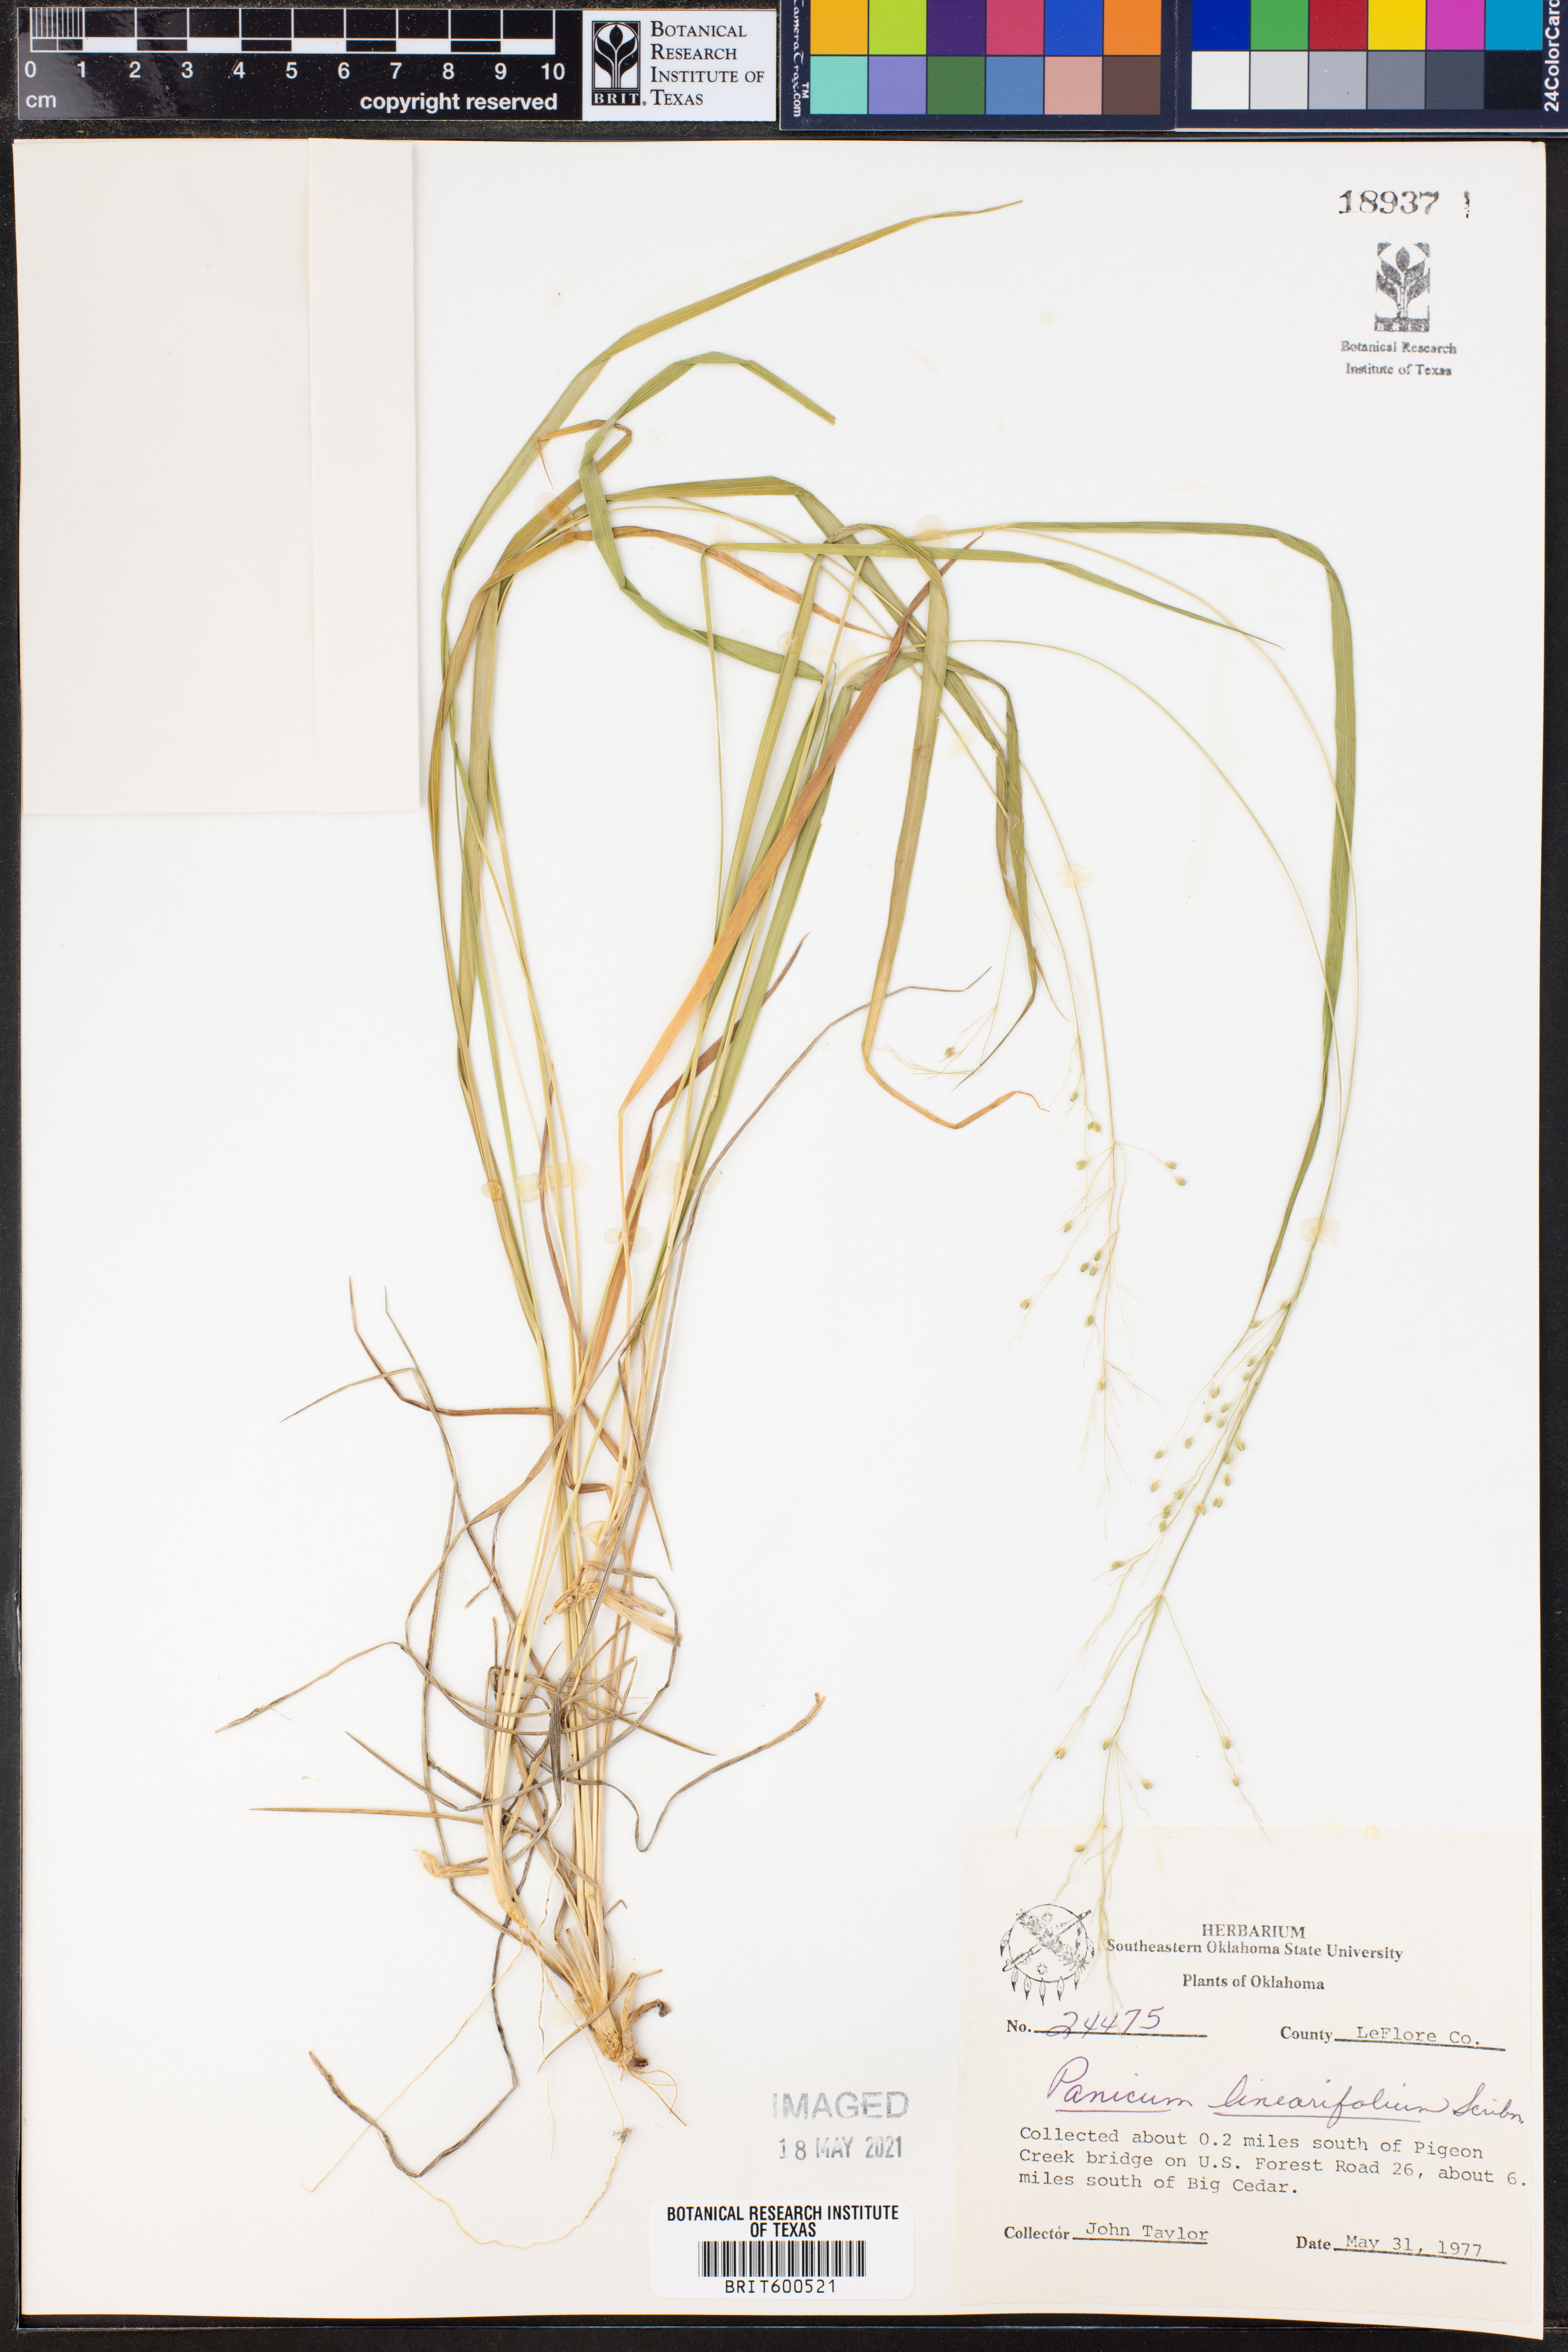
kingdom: Plantae
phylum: Tracheophyta
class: Liliopsida
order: Poales
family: Poaceae
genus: Dichanthelium
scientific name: Dichanthelium linearifolium
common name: Linear-leaved panicgrass
